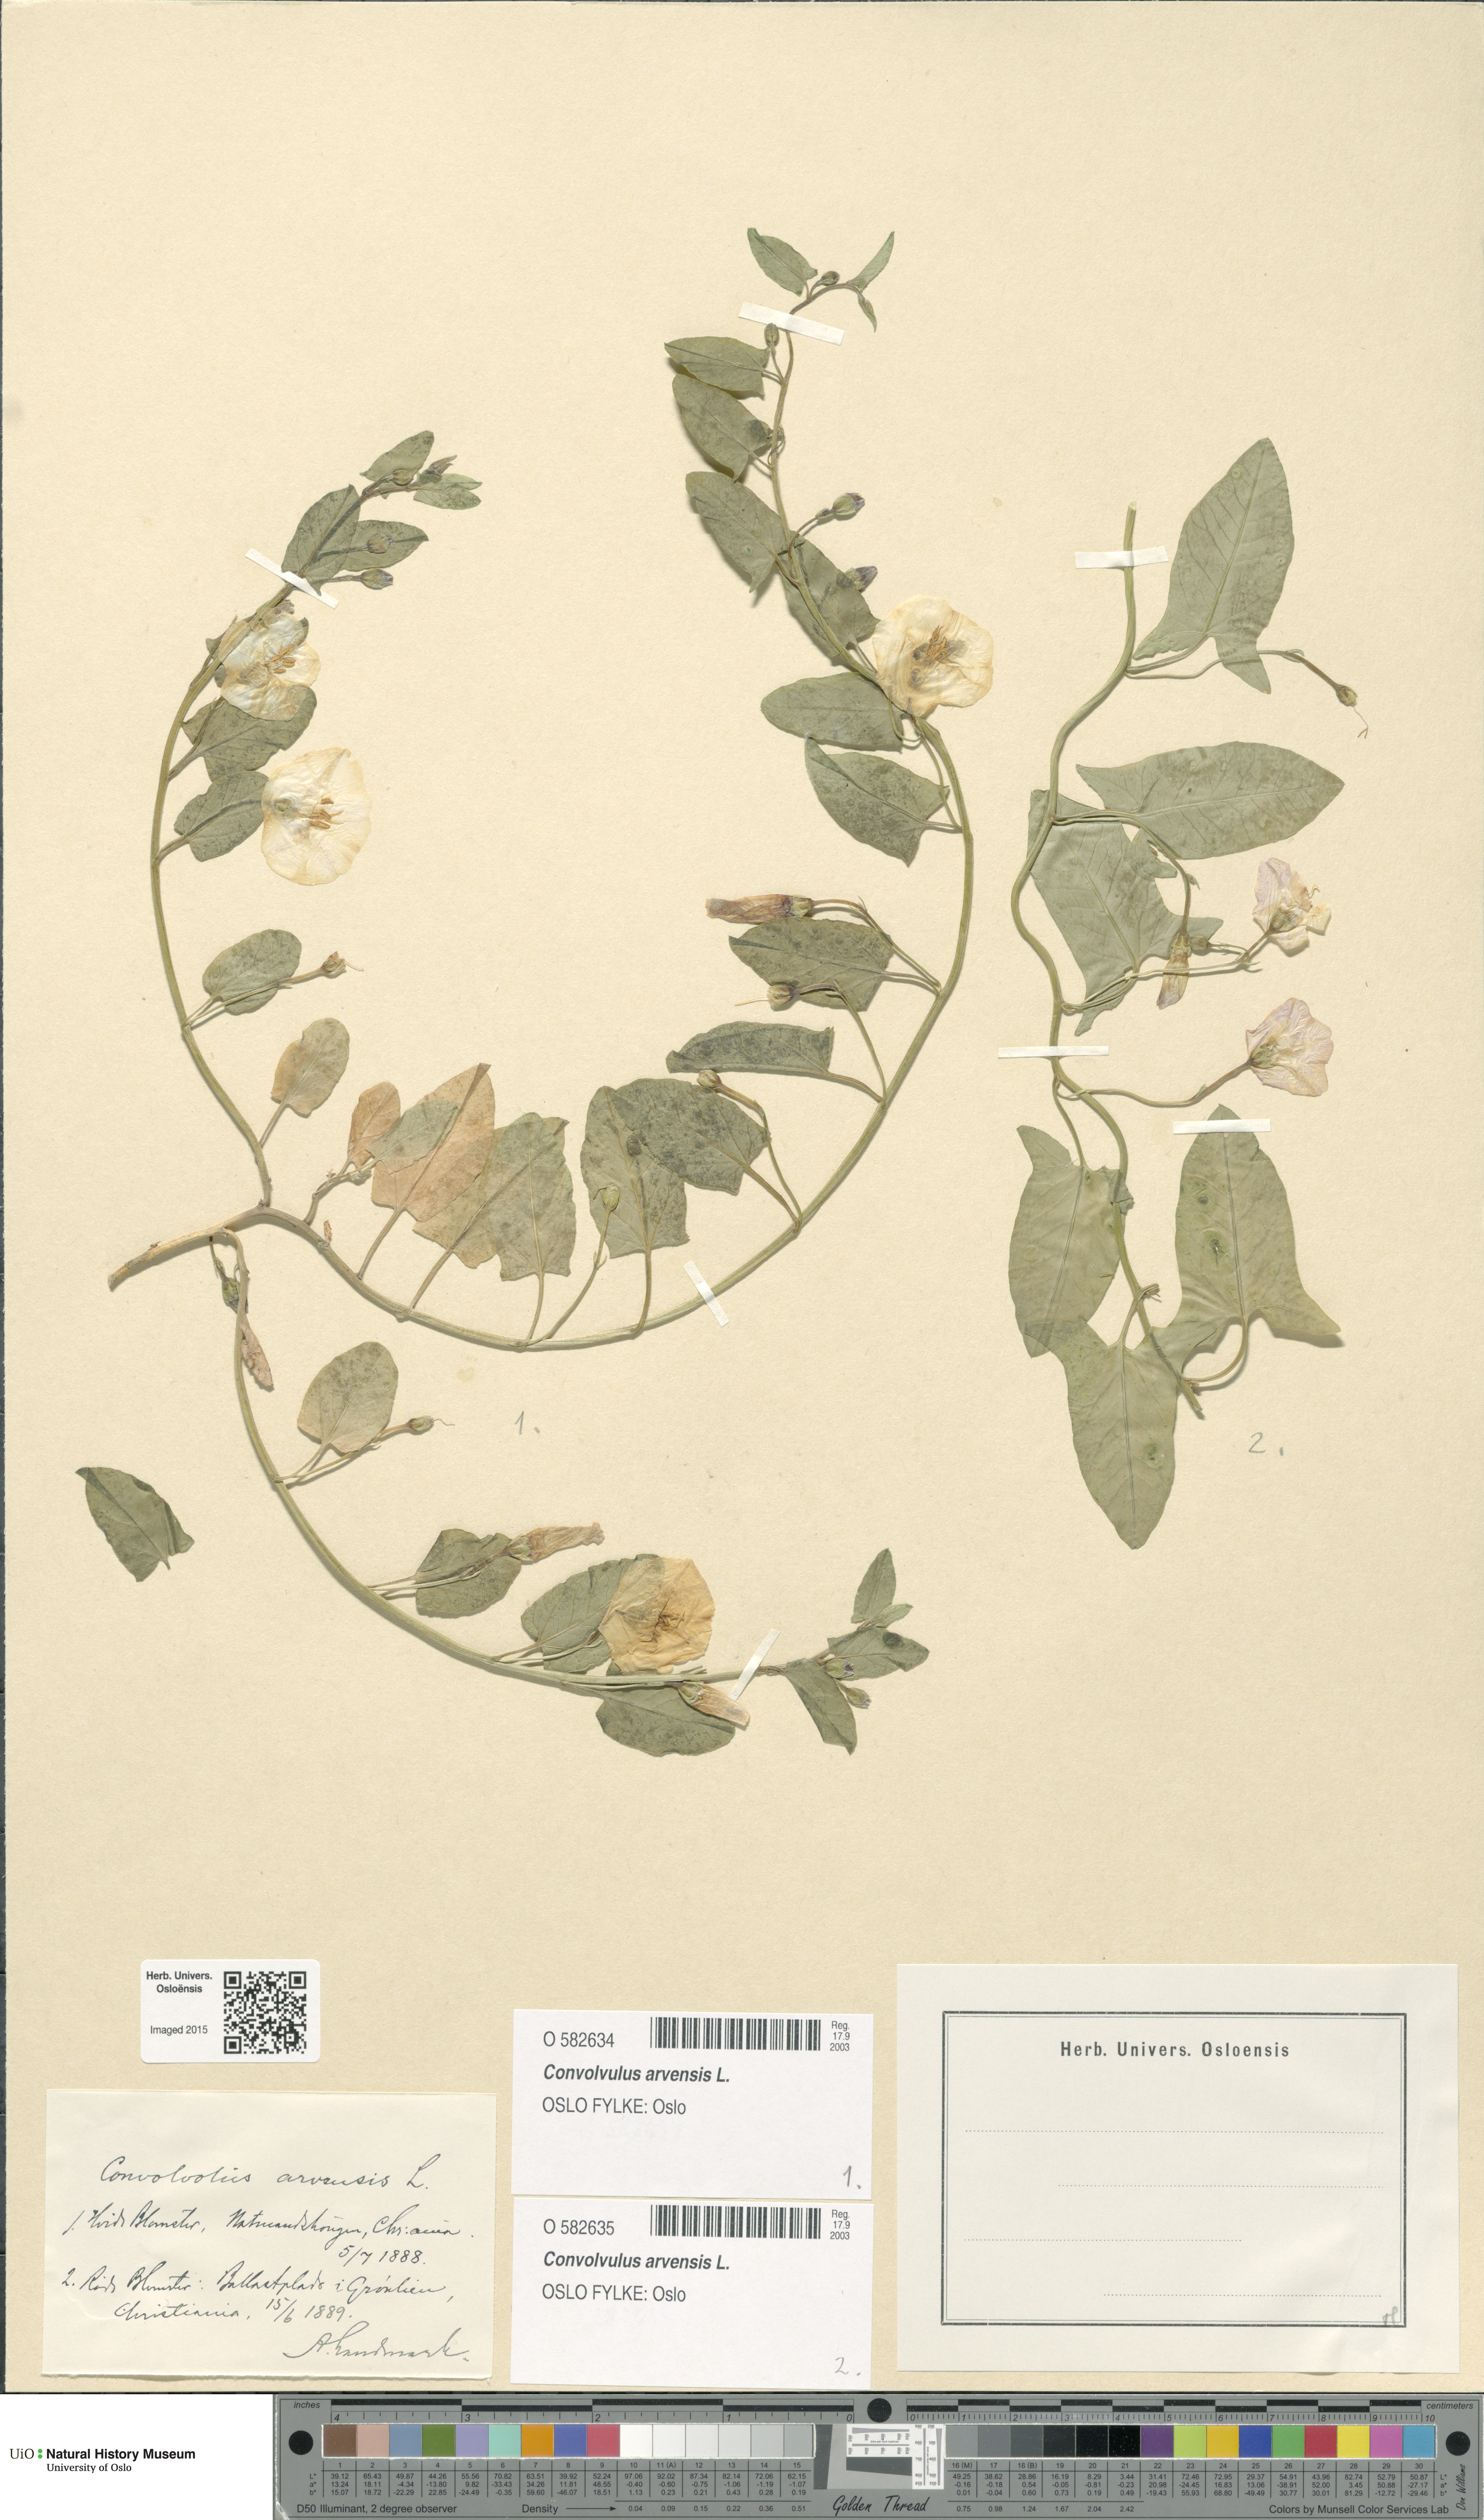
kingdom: Plantae
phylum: Tracheophyta
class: Magnoliopsida
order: Solanales
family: Convolvulaceae
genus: Convolvulus
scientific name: Convolvulus arvensis
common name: Field bindweed
